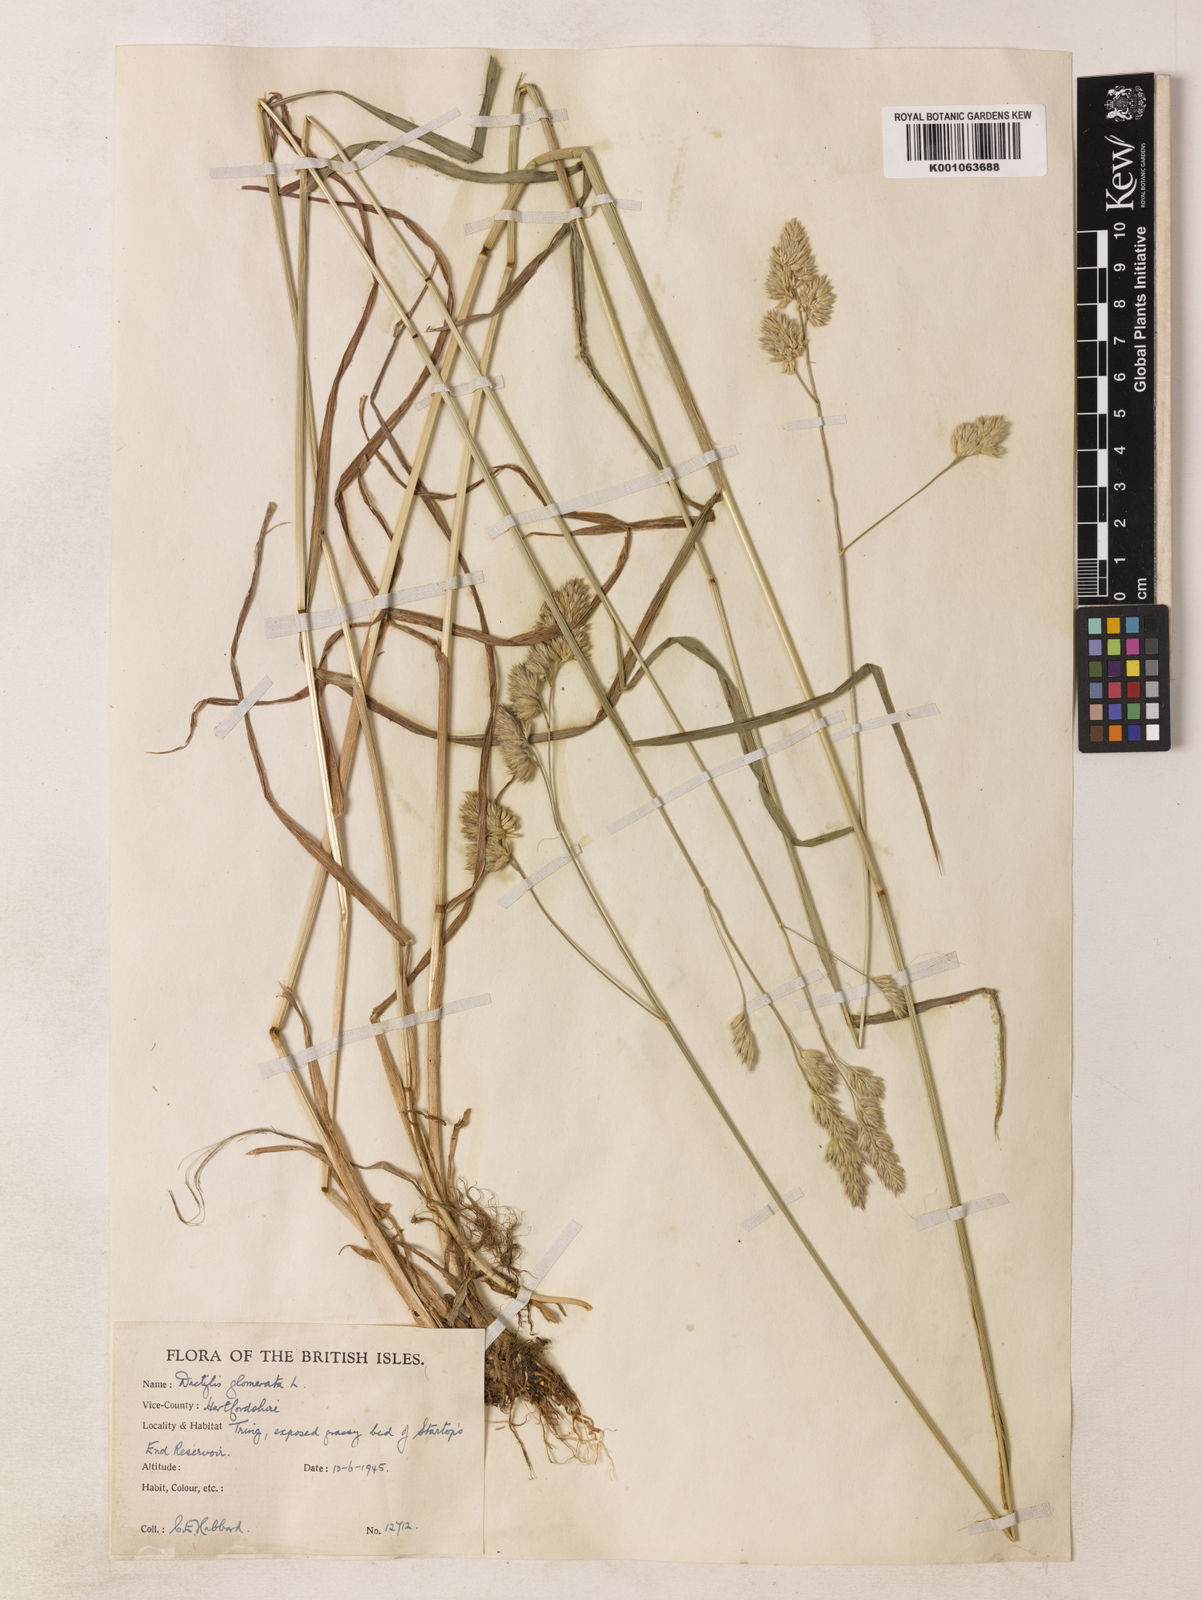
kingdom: Plantae
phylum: Tracheophyta
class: Liliopsida
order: Poales
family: Poaceae
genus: Dactylis
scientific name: Dactylis glomerata
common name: Orchardgrass
